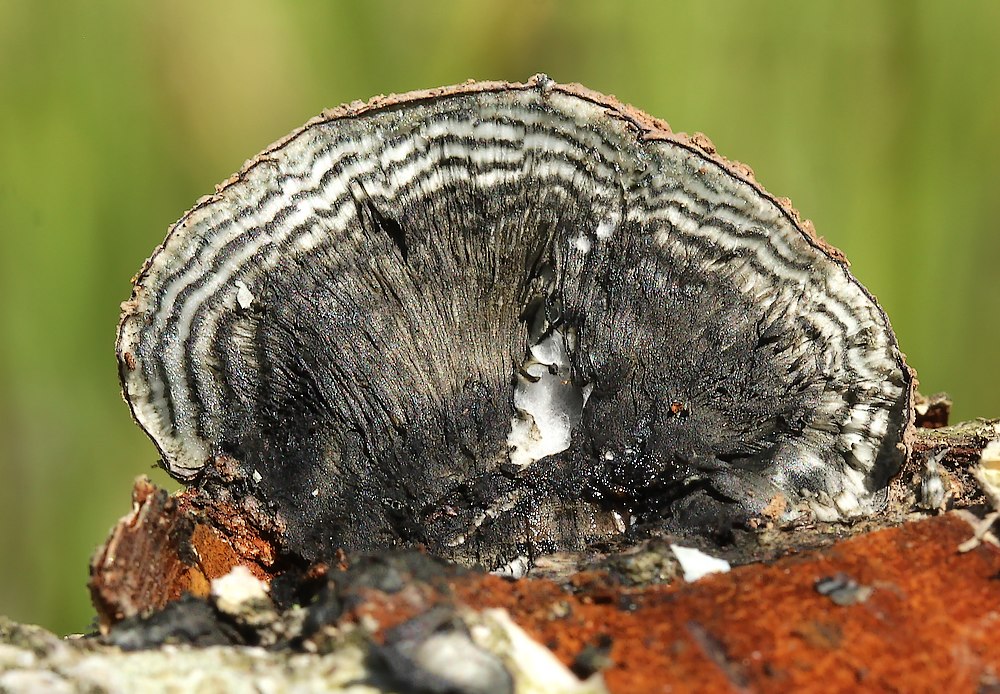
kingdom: Fungi
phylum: Ascomycota
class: Sordariomycetes
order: Xylariales
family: Hypoxylaceae
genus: Daldinia
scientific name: Daldinia
